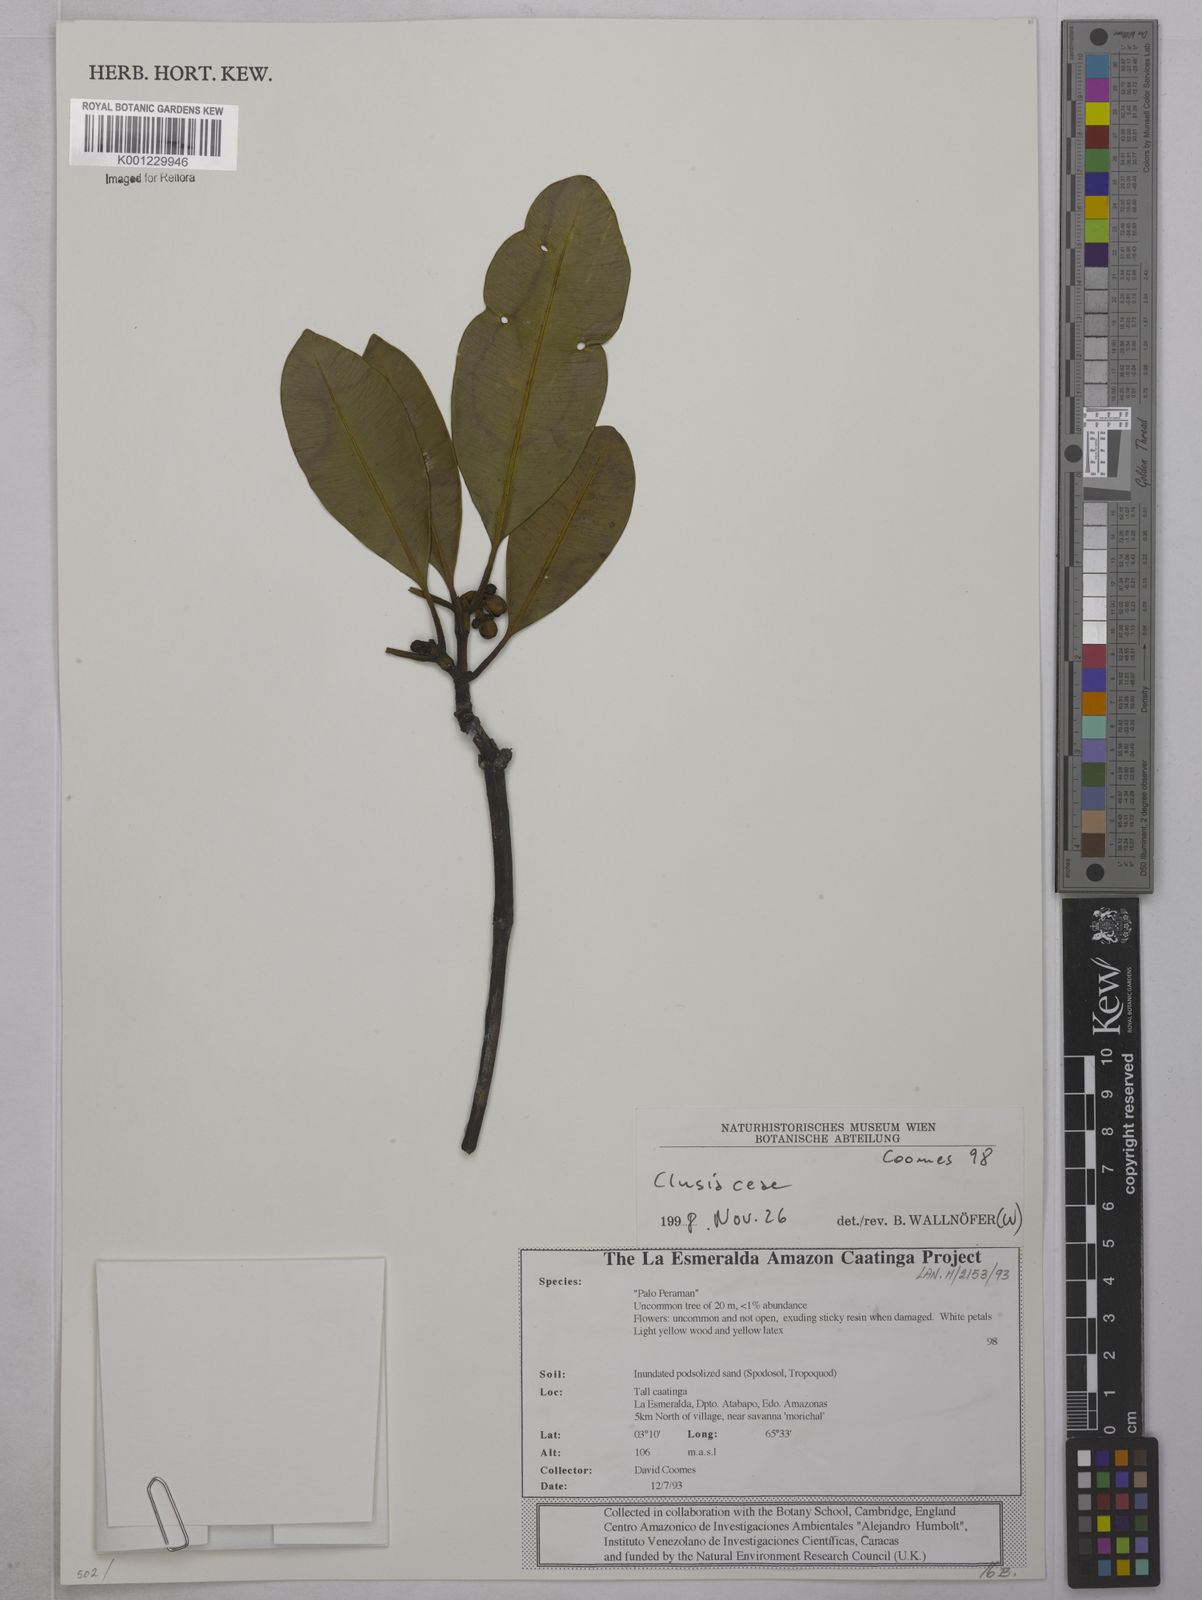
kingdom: Plantae
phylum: Tracheophyta
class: Magnoliopsida
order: Malpighiales
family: Clusiaceae
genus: Clusia
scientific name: Clusia
